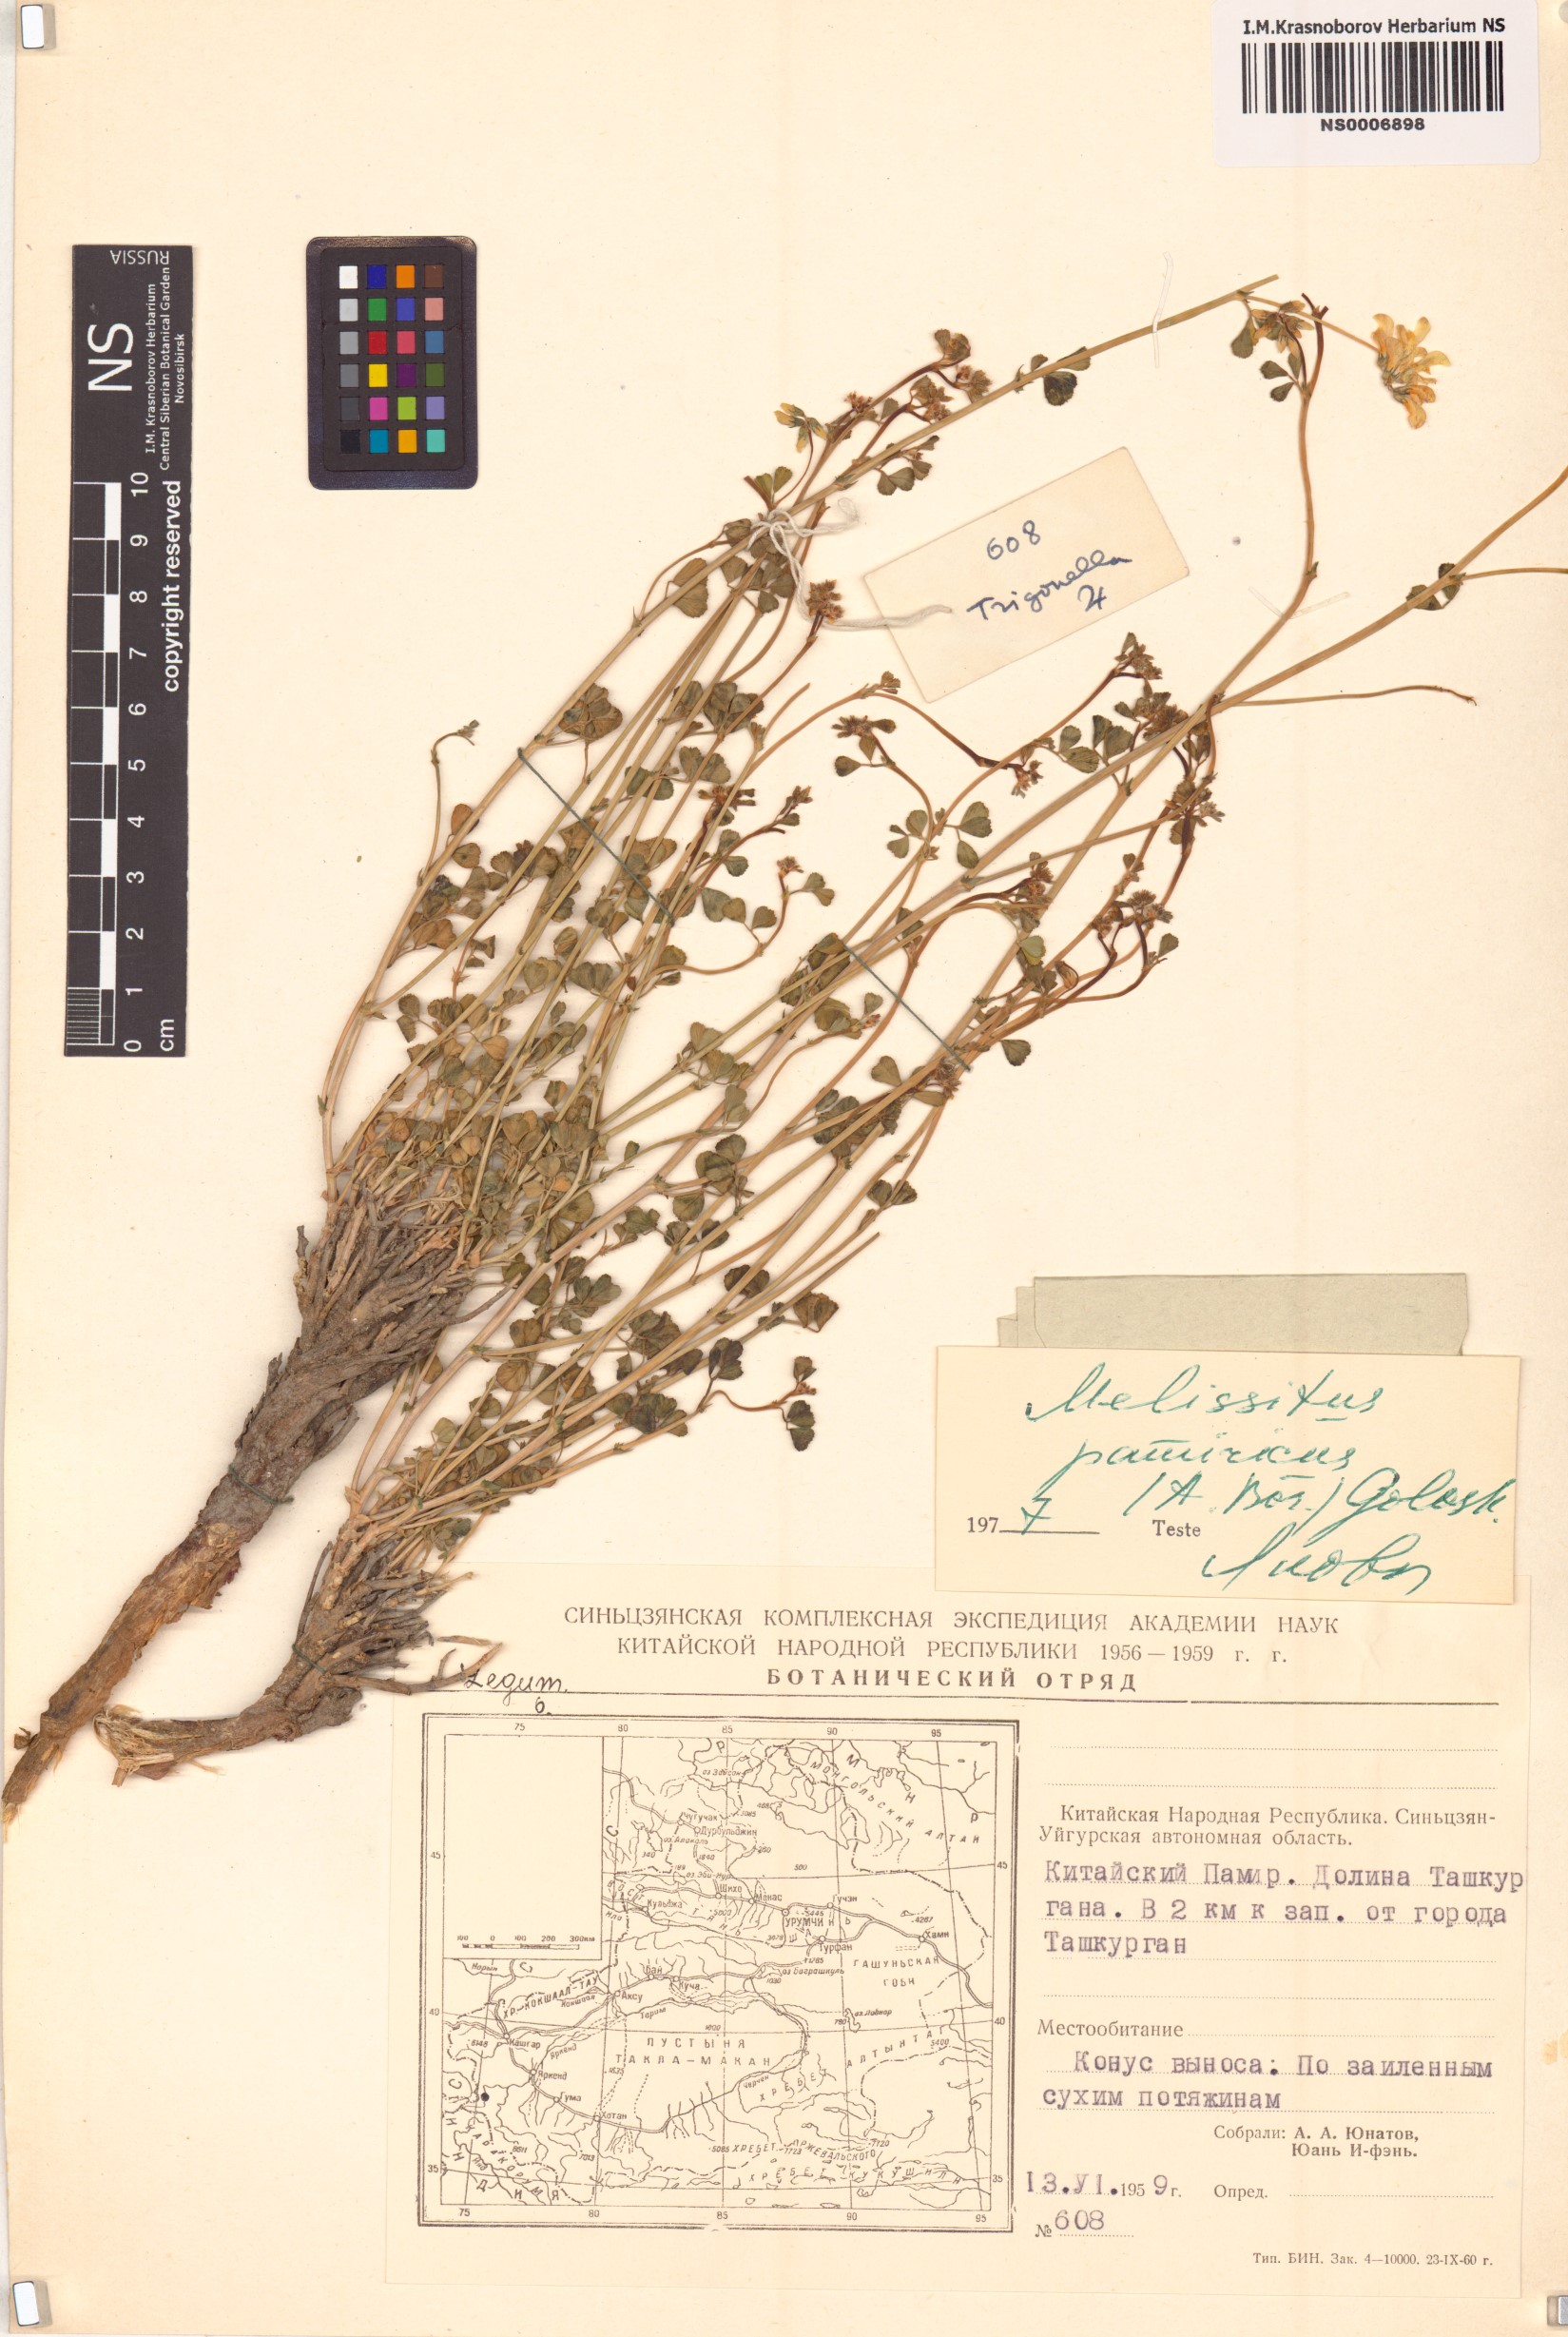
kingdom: Plantae
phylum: Tracheophyta
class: Magnoliopsida
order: Fabales
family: Fabaceae
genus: Trigonella
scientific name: Trigonella pamirica
